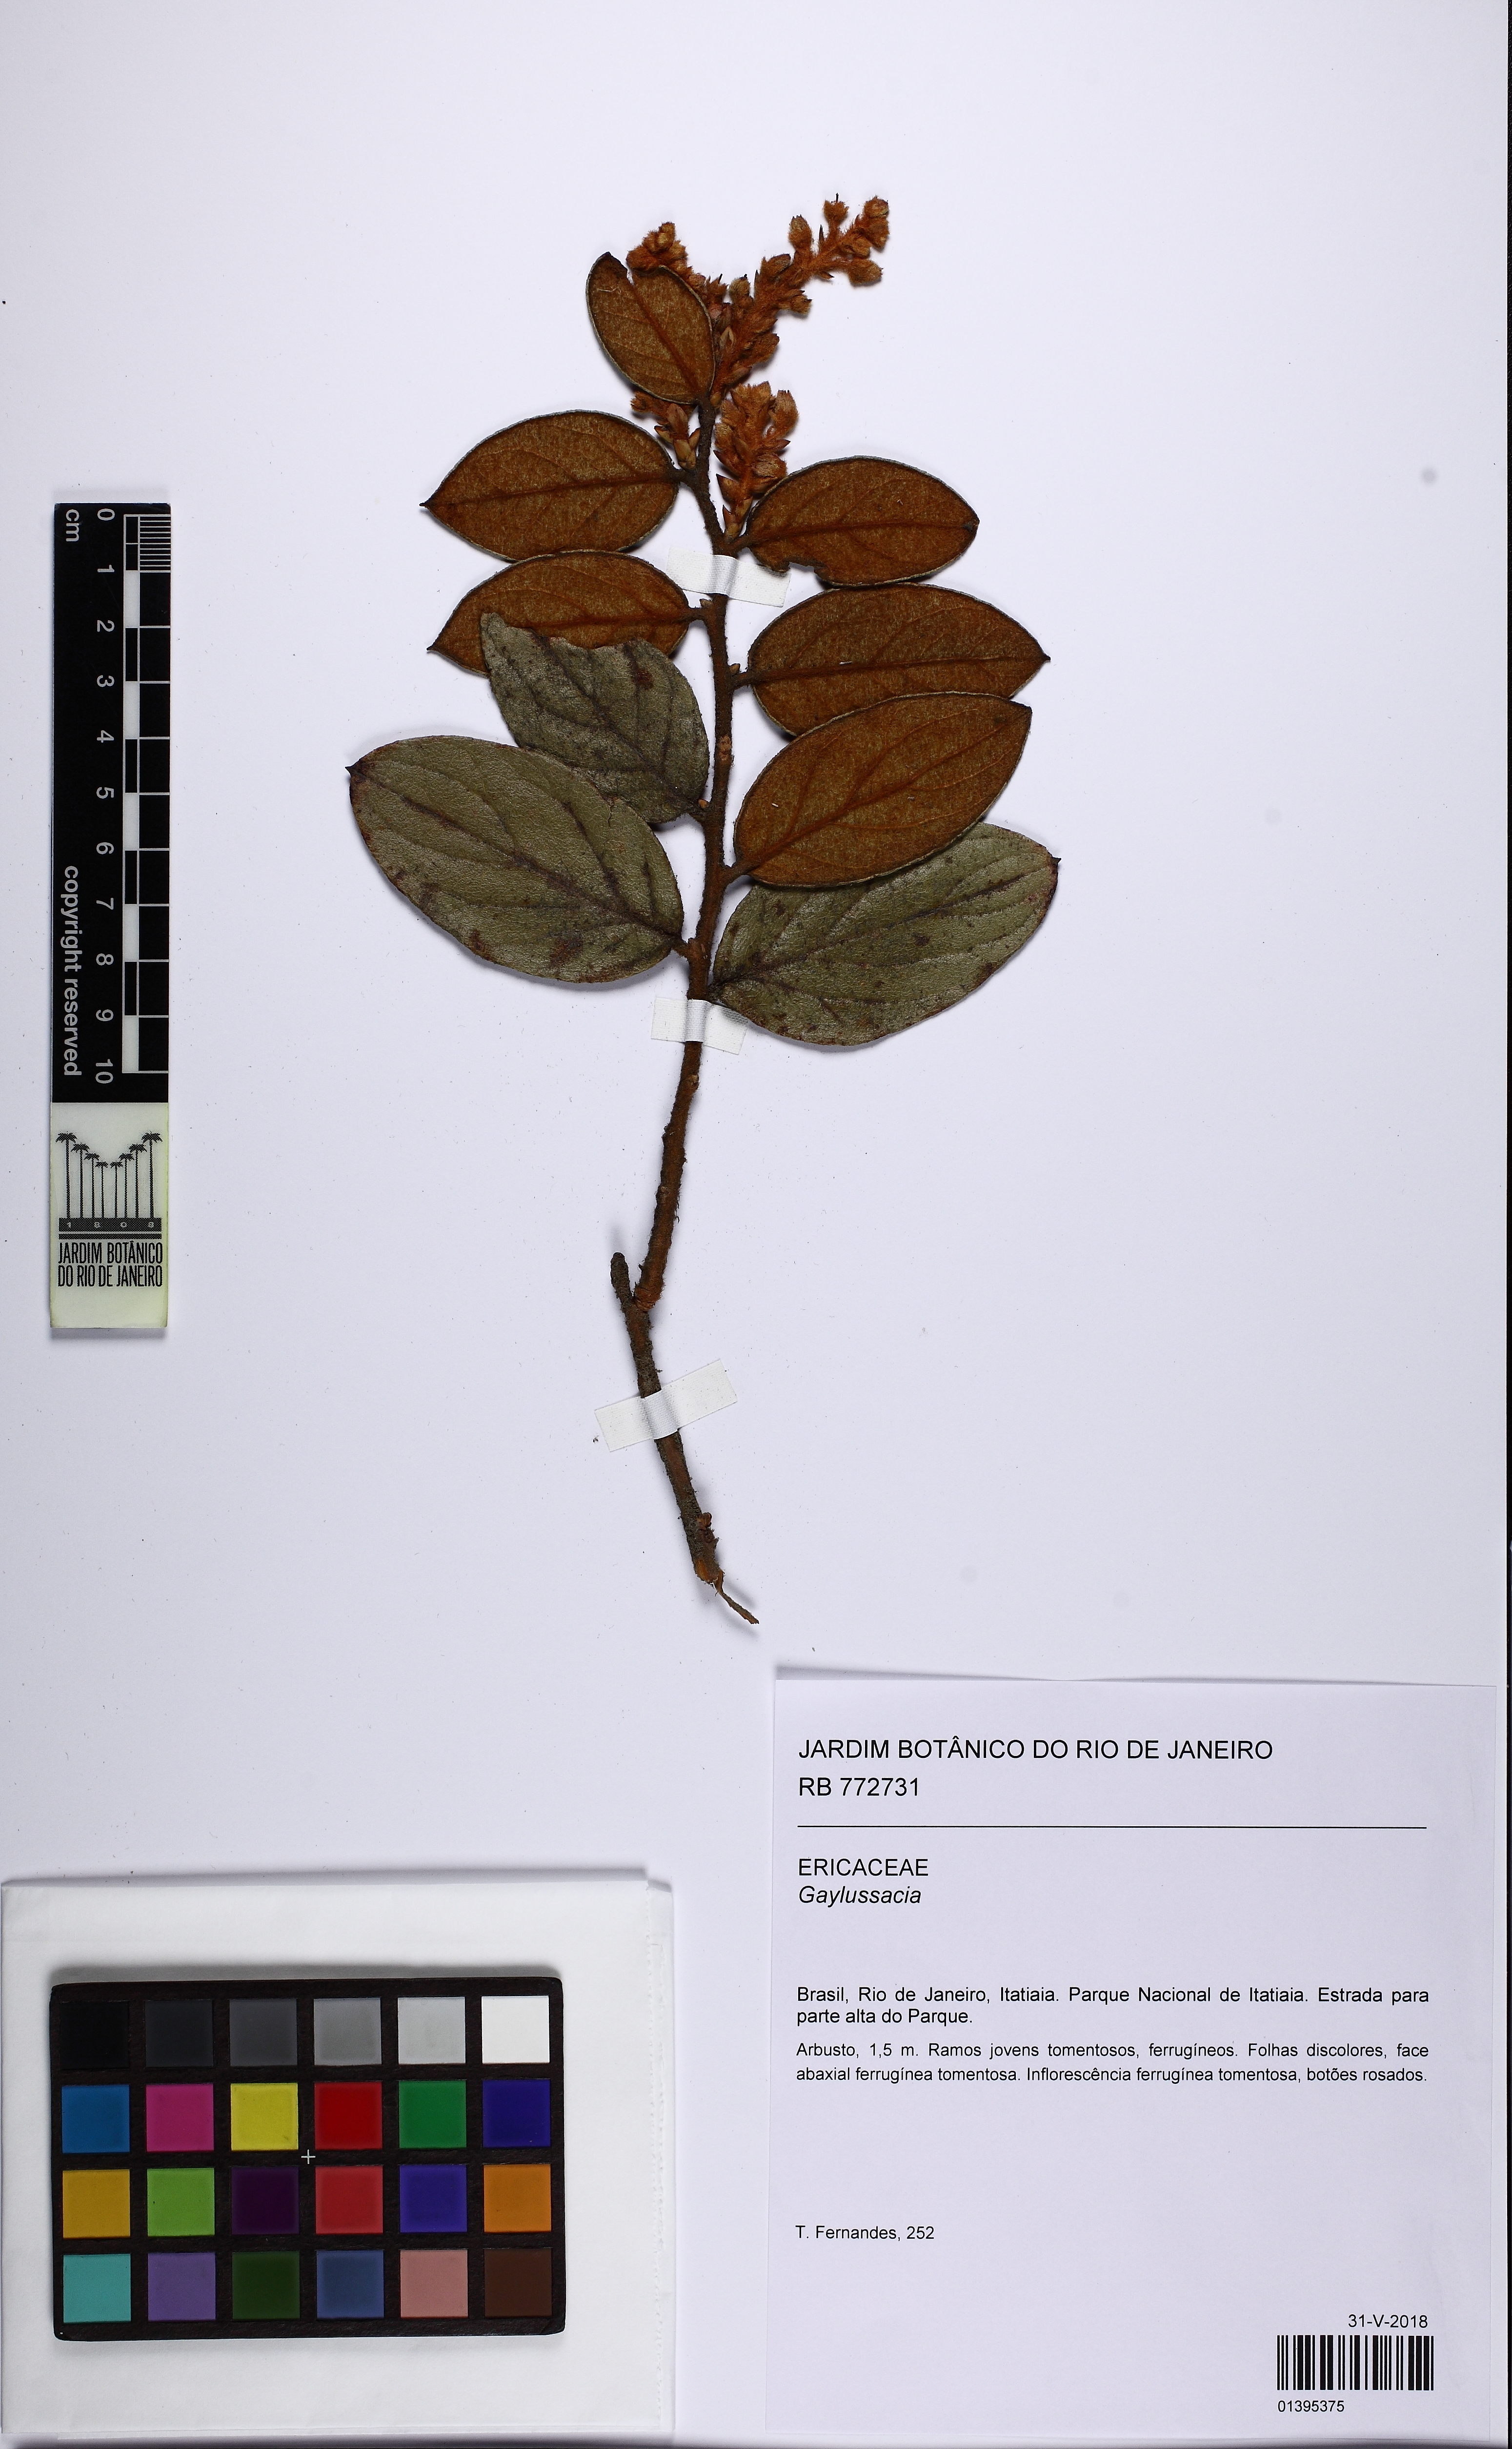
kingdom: Plantae
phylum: Tracheophyta
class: Magnoliopsida
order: Ericales
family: Ericaceae
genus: Gaylussacia
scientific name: Gaylussacia
